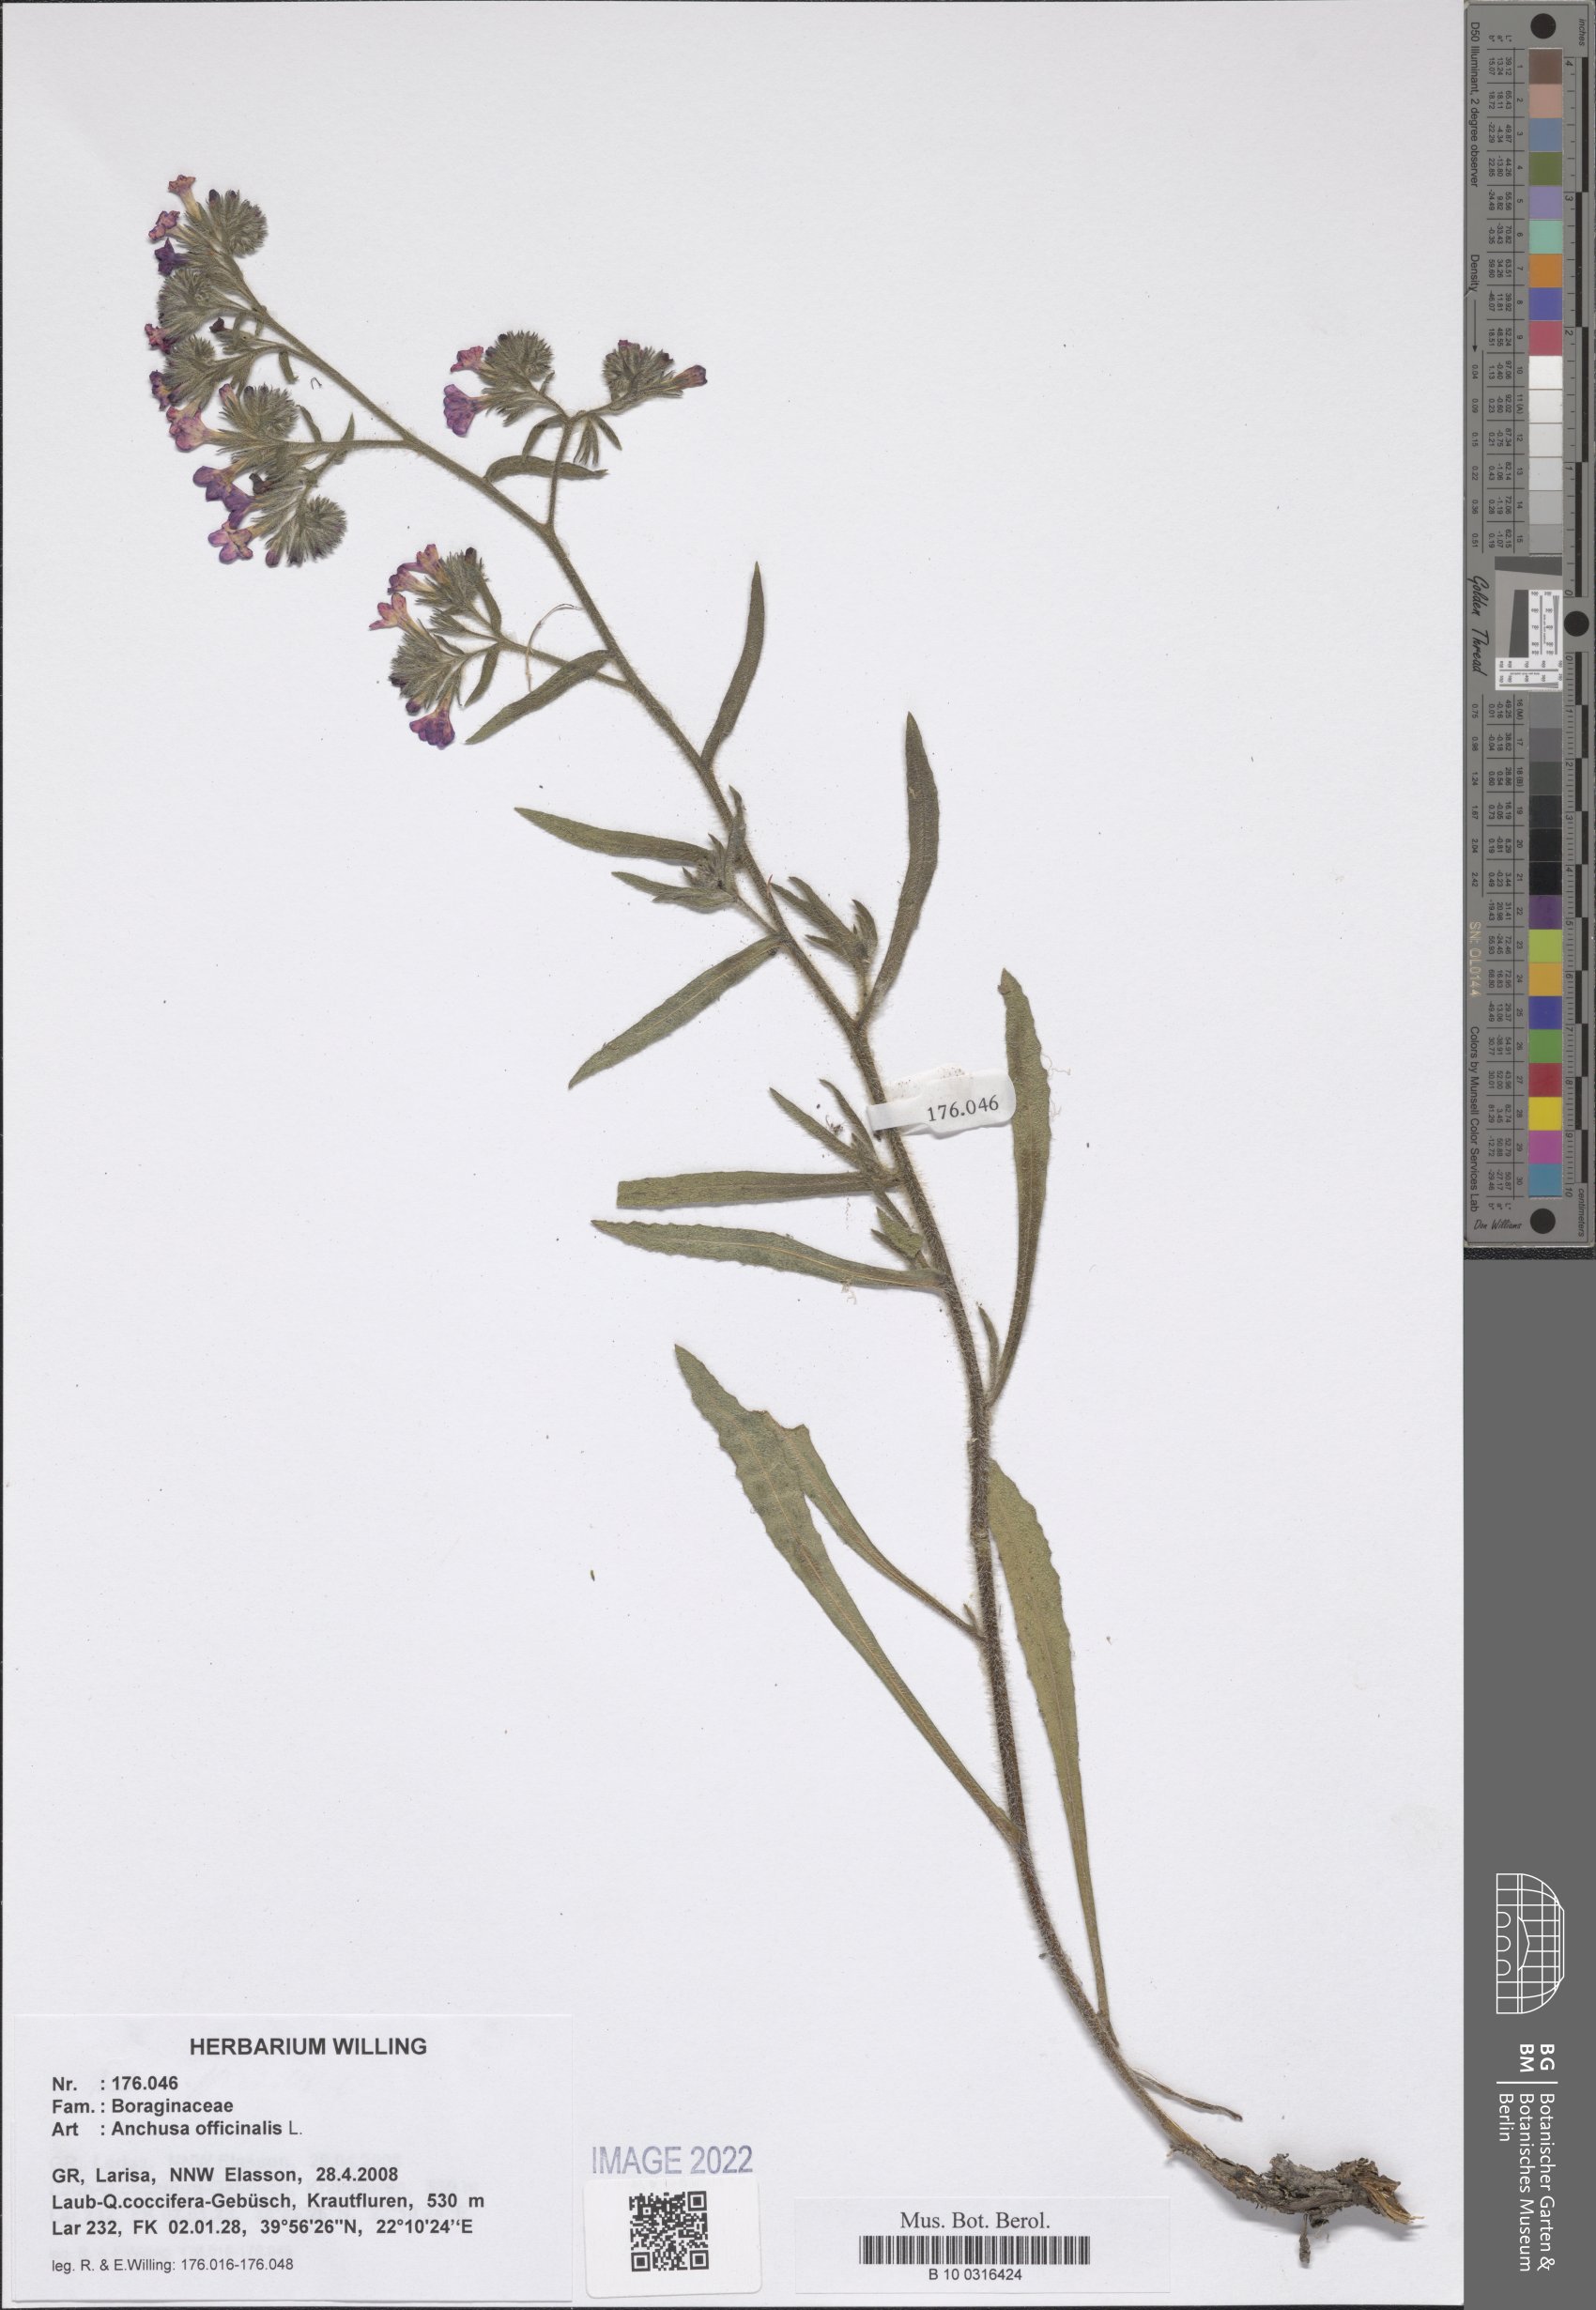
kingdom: Plantae
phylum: Tracheophyta
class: Magnoliopsida
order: Boraginales
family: Boraginaceae
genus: Anchusa
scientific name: Anchusa officinalis
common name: Alkanet
